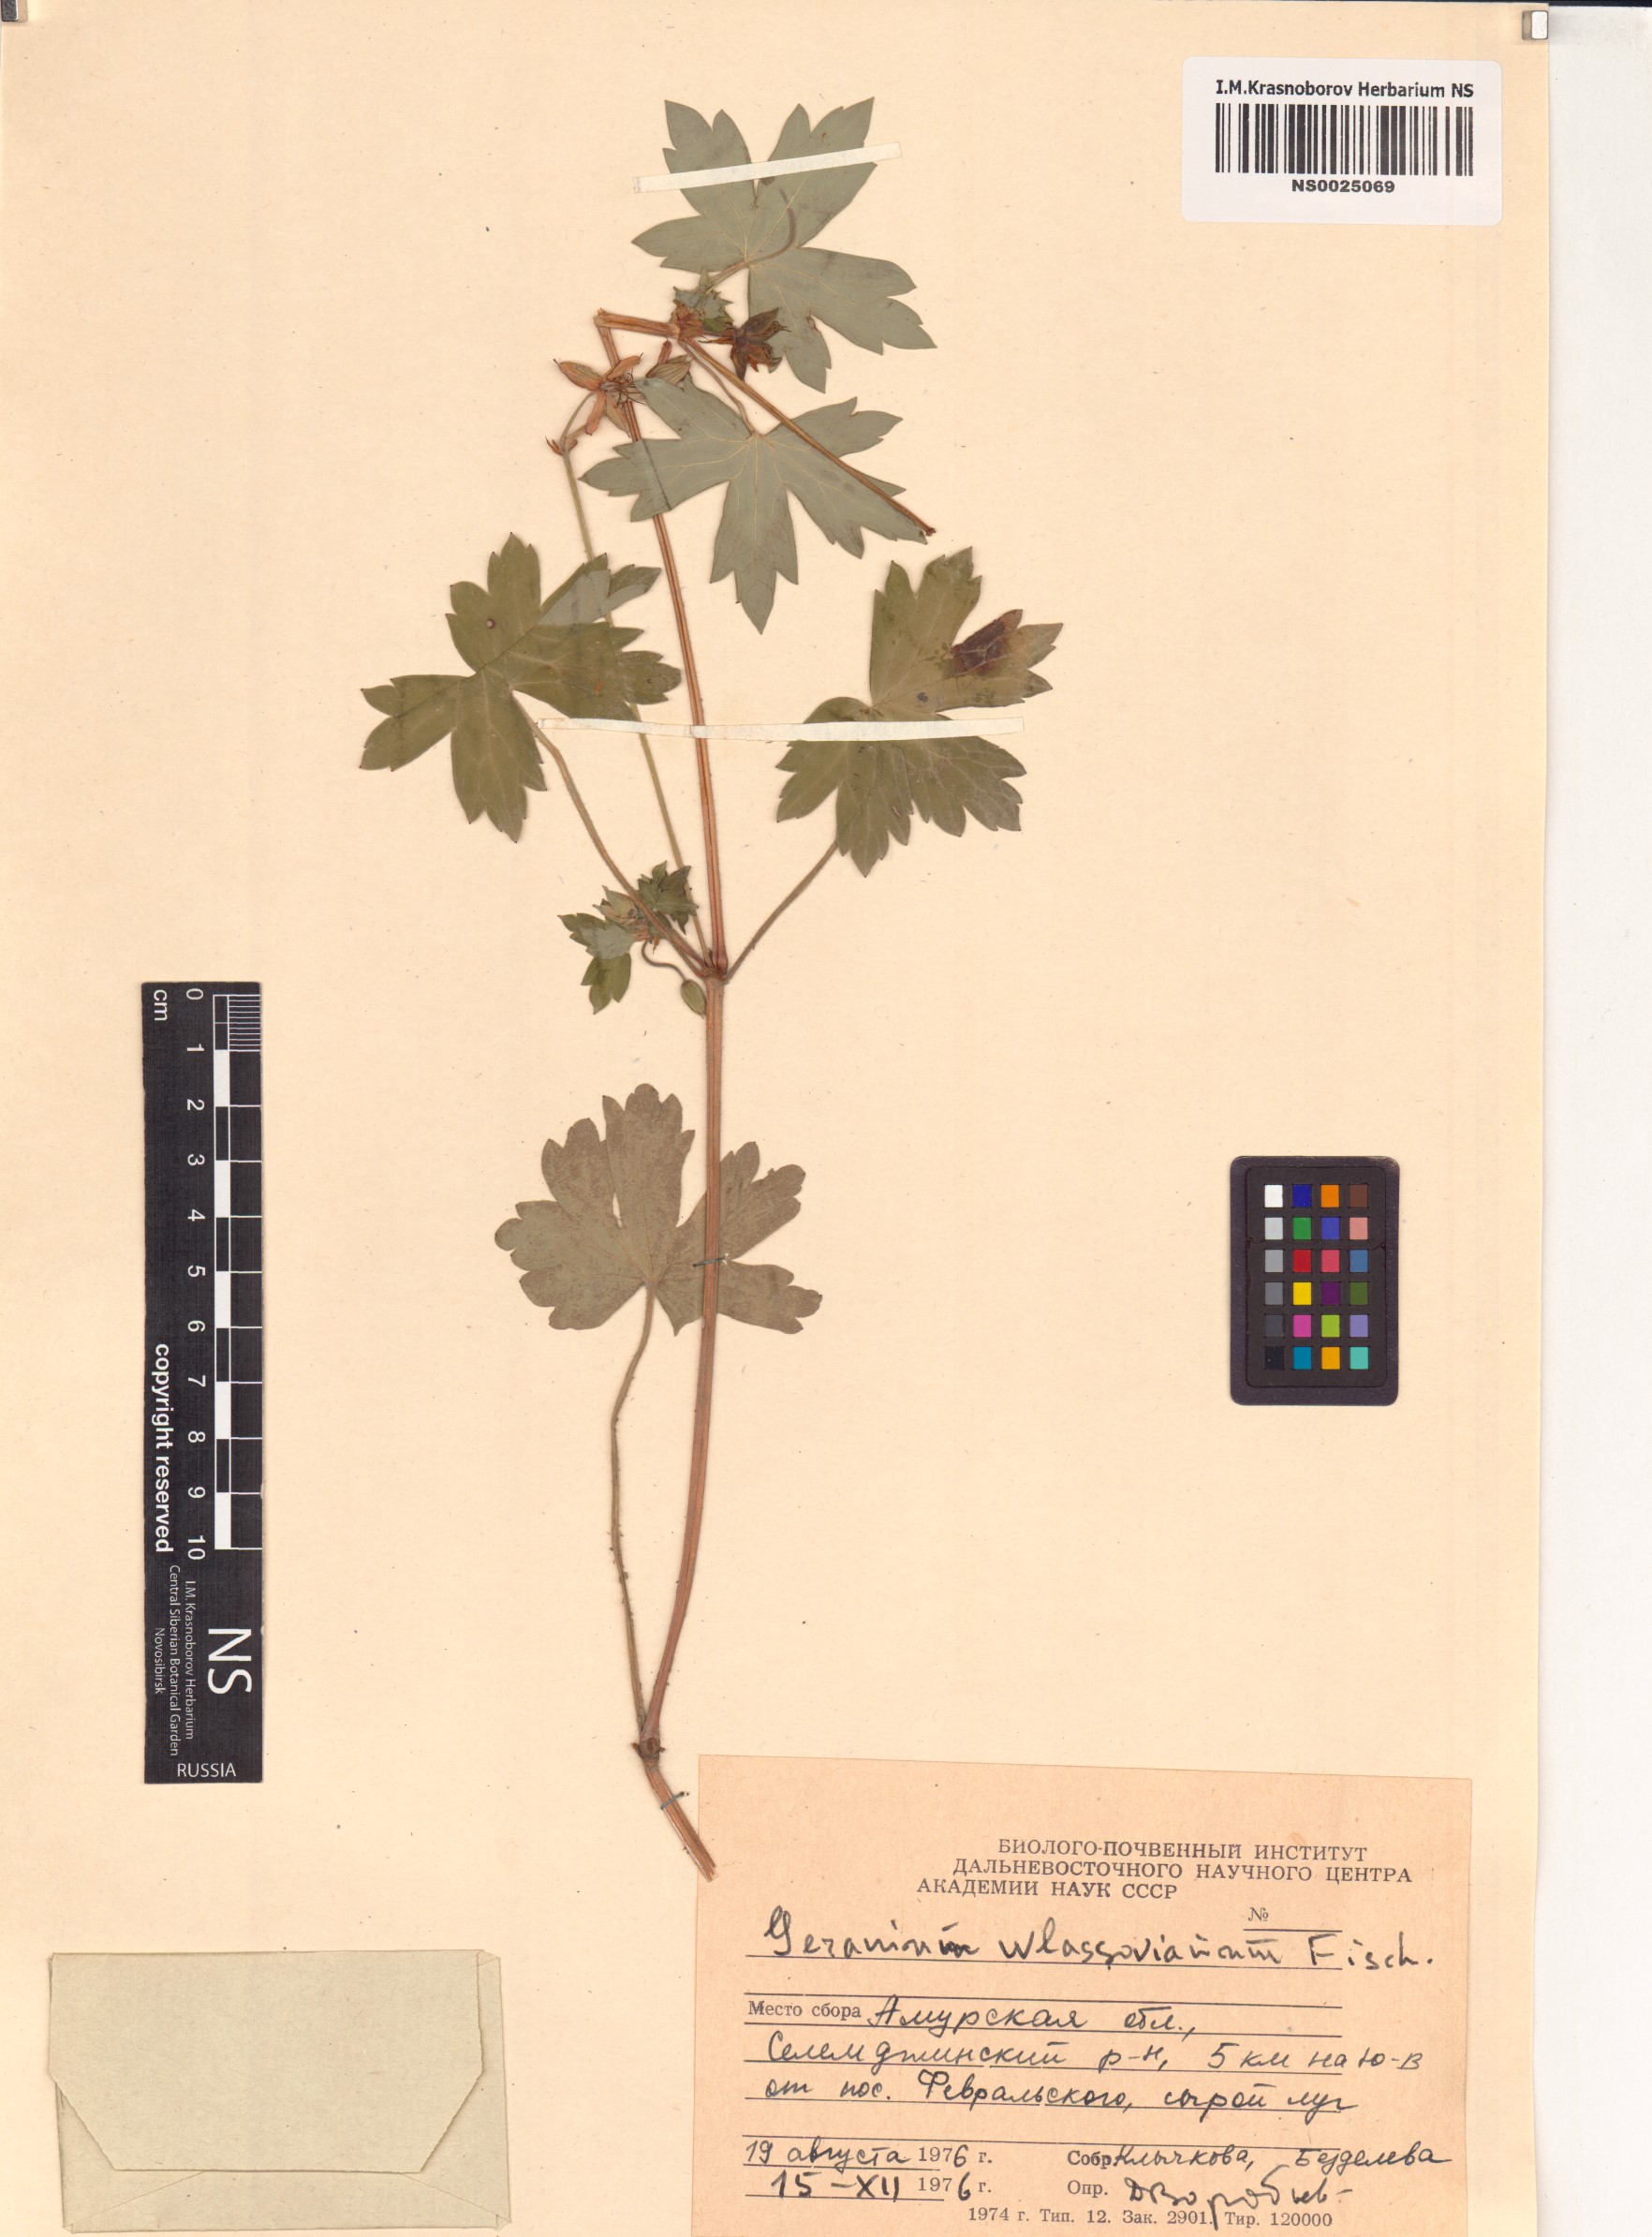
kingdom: Plantae
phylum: Tracheophyta
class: Magnoliopsida
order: Geraniales
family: Geraniaceae
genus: Geranium
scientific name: Geranium wlassovianum
